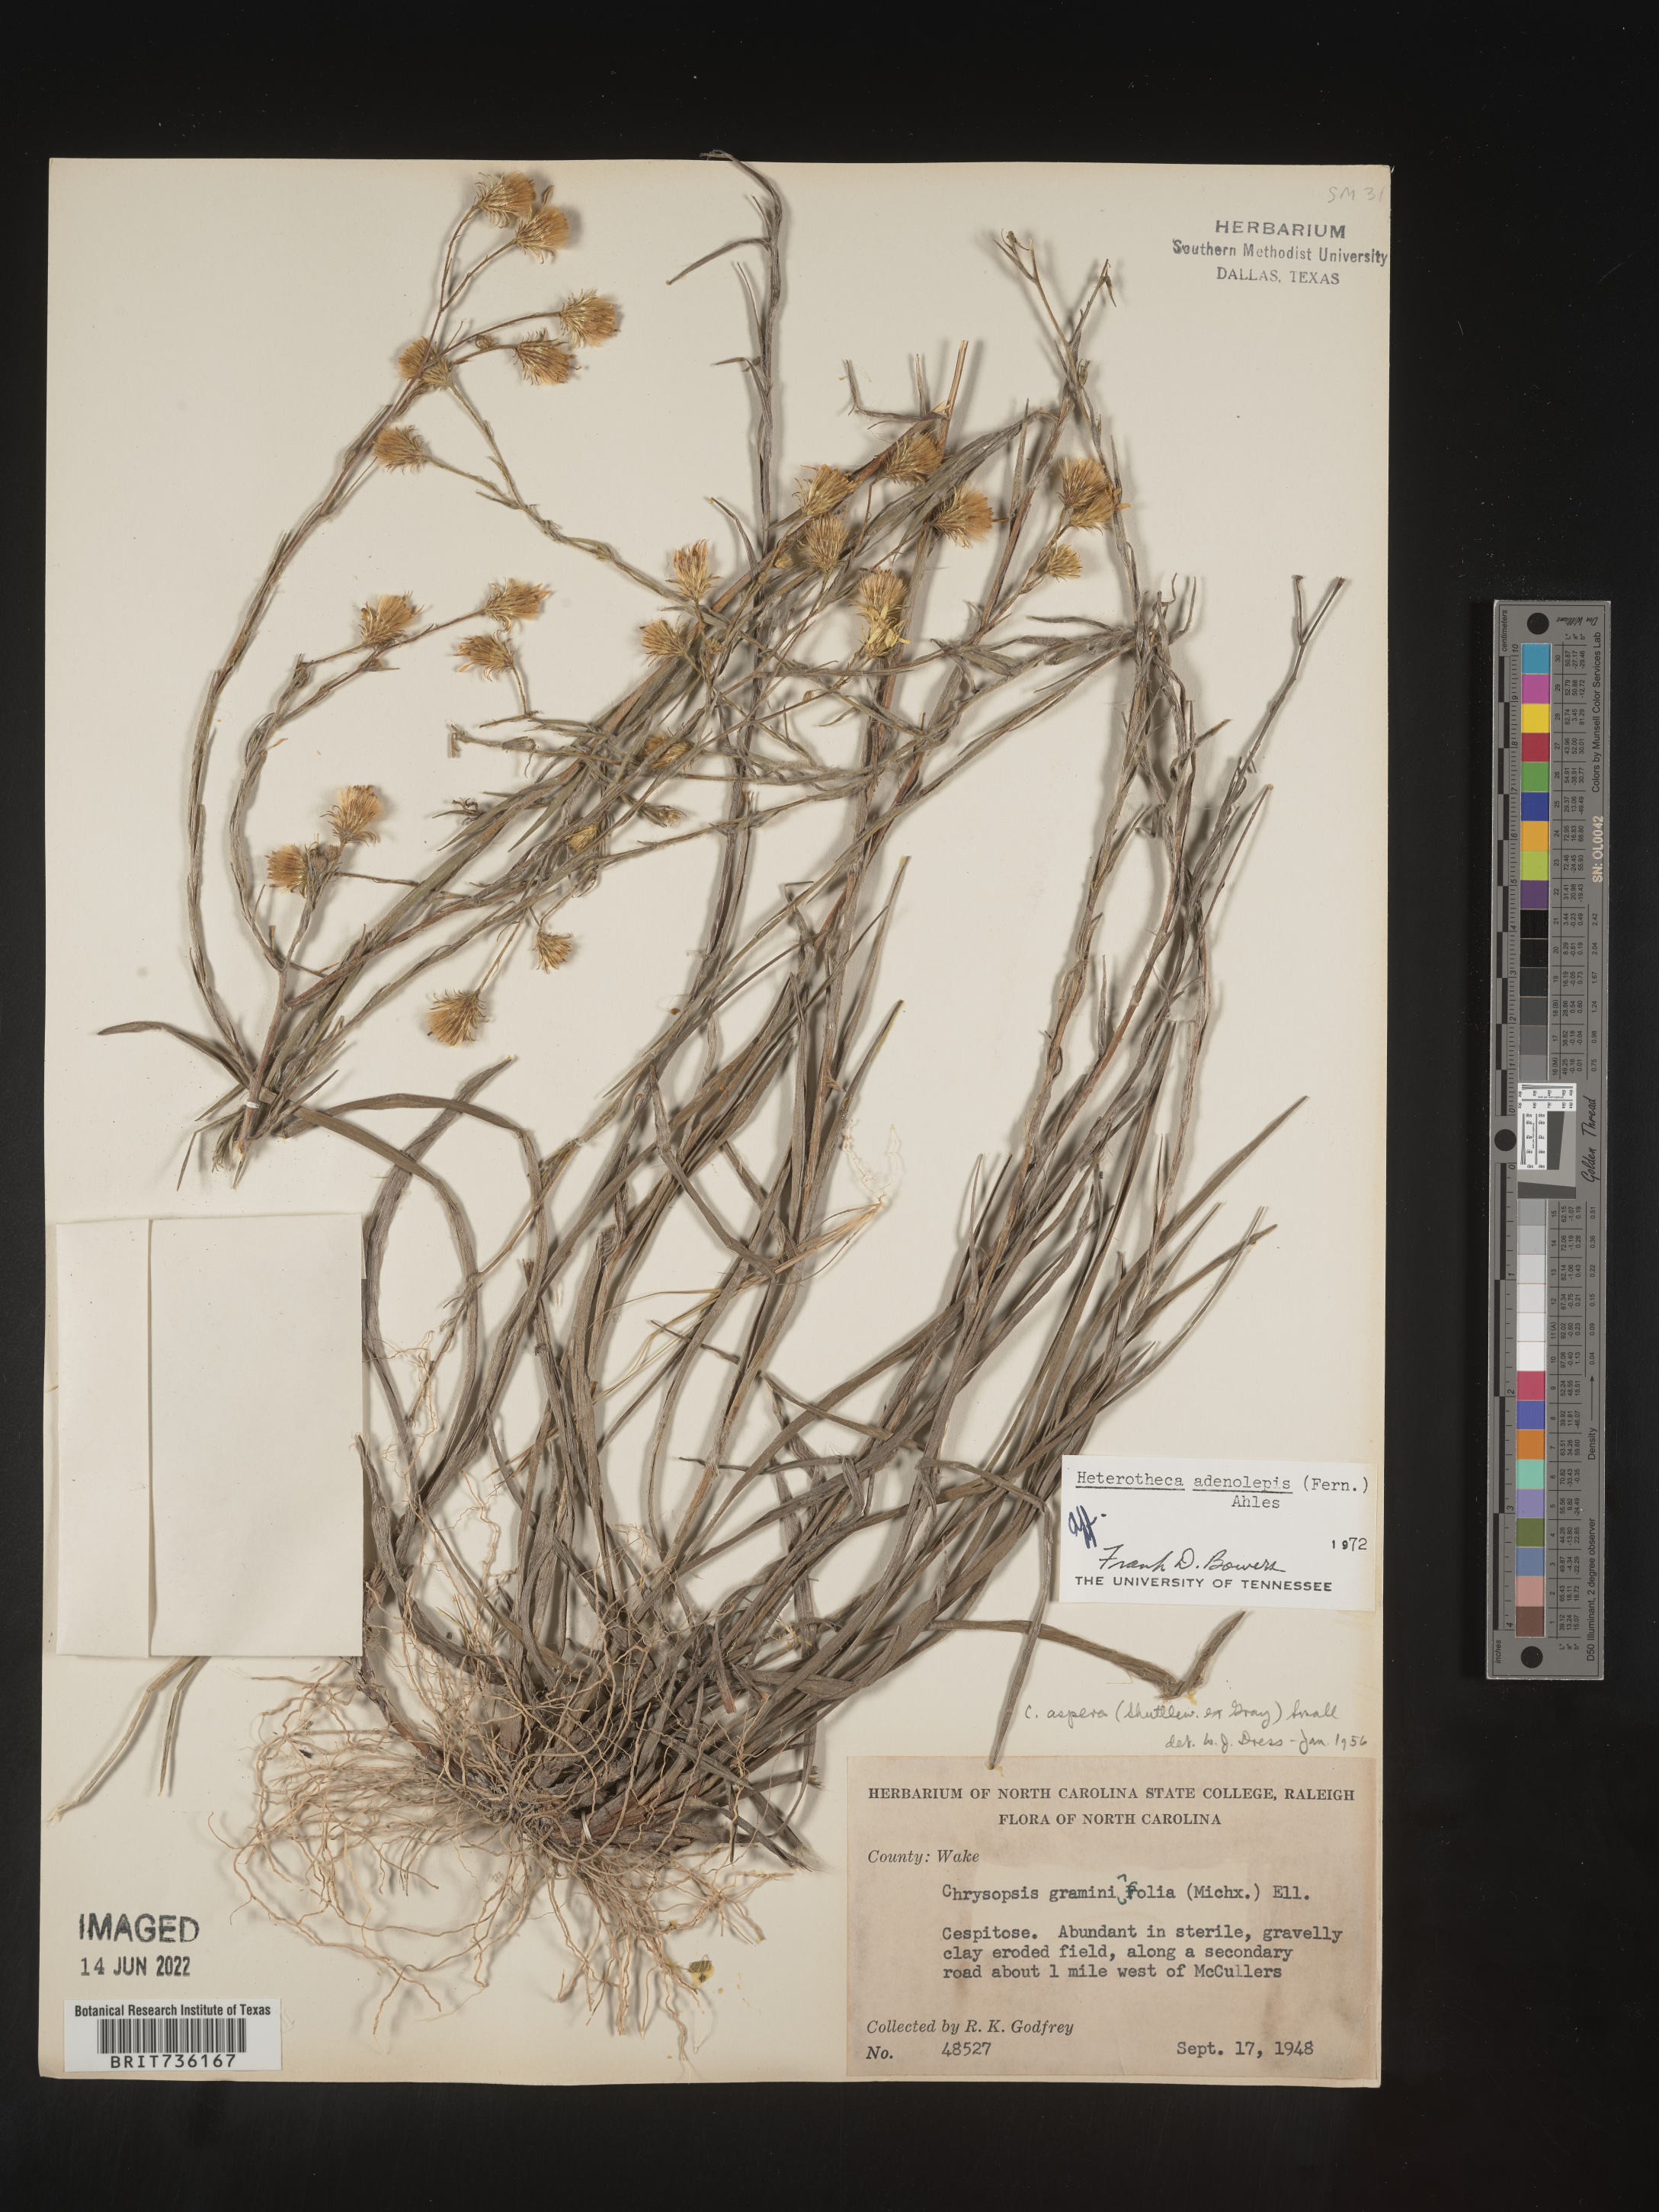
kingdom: Plantae
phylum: Tracheophyta
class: Magnoliopsida
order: Asterales
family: Asteraceae
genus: Pityopsis
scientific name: Pityopsis aspera
